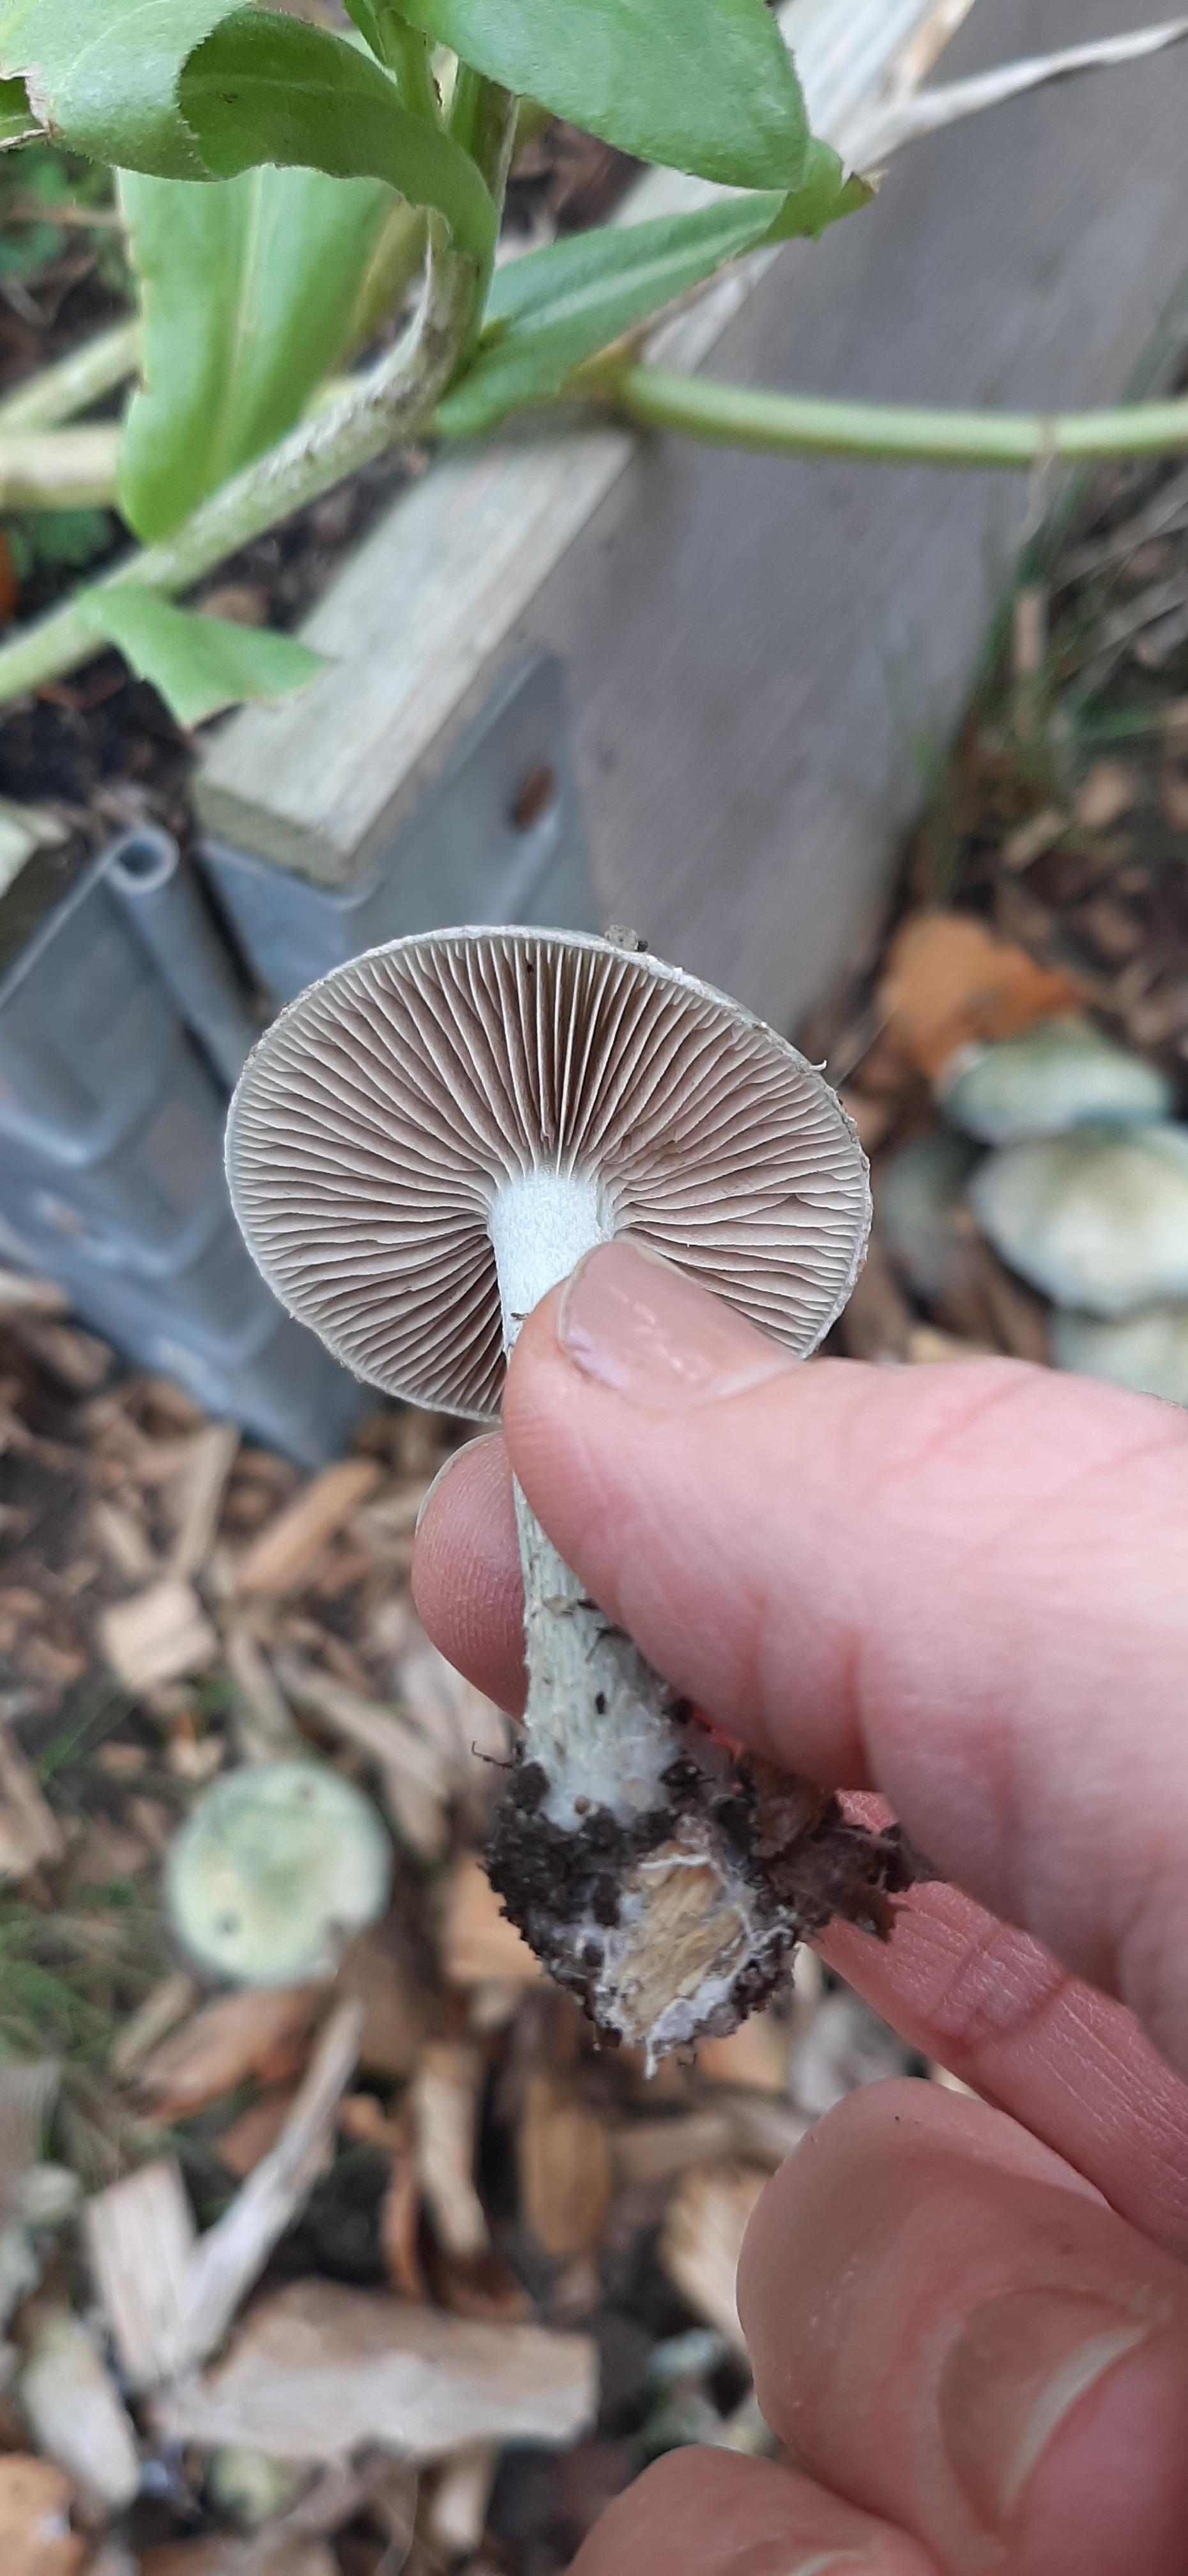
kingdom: Fungi
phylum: Basidiomycota
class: Agaricomycetes
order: Agaricales
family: Strophariaceae
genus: Stropharia
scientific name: Stropharia cyanea
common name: blågrøn bredblad
